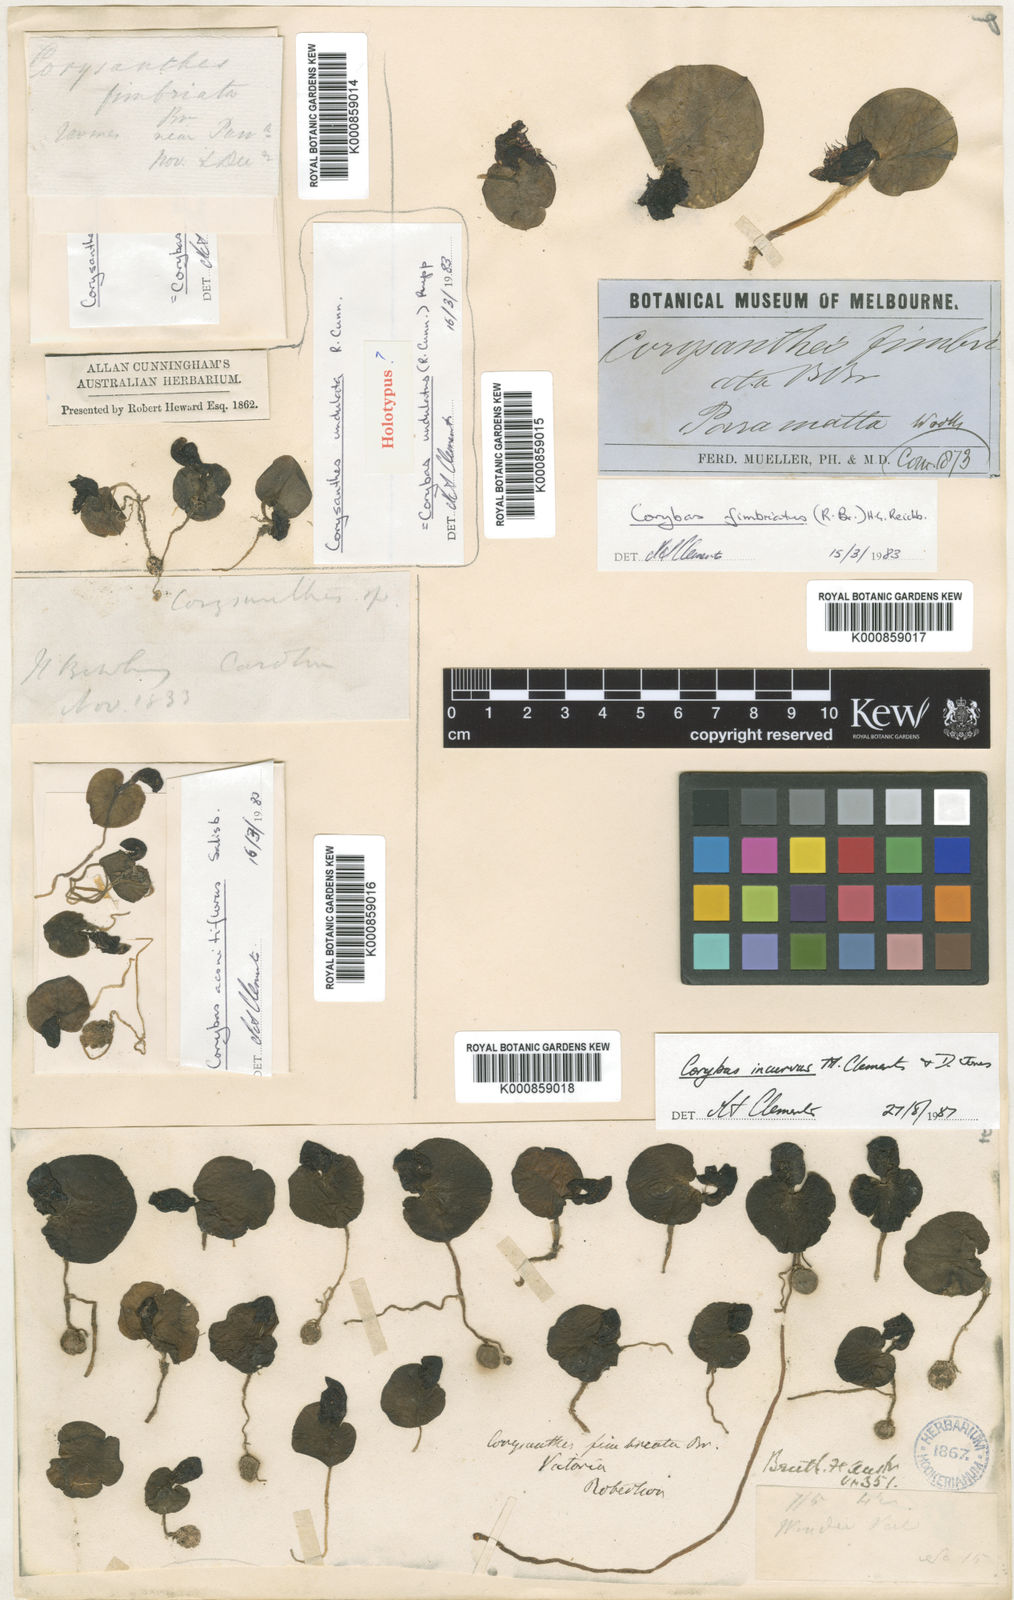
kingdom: Plantae
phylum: Tracheophyta
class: Liliopsida
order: Asparagales
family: Orchidaceae
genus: Corybas
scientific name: Corybas pruinosus
